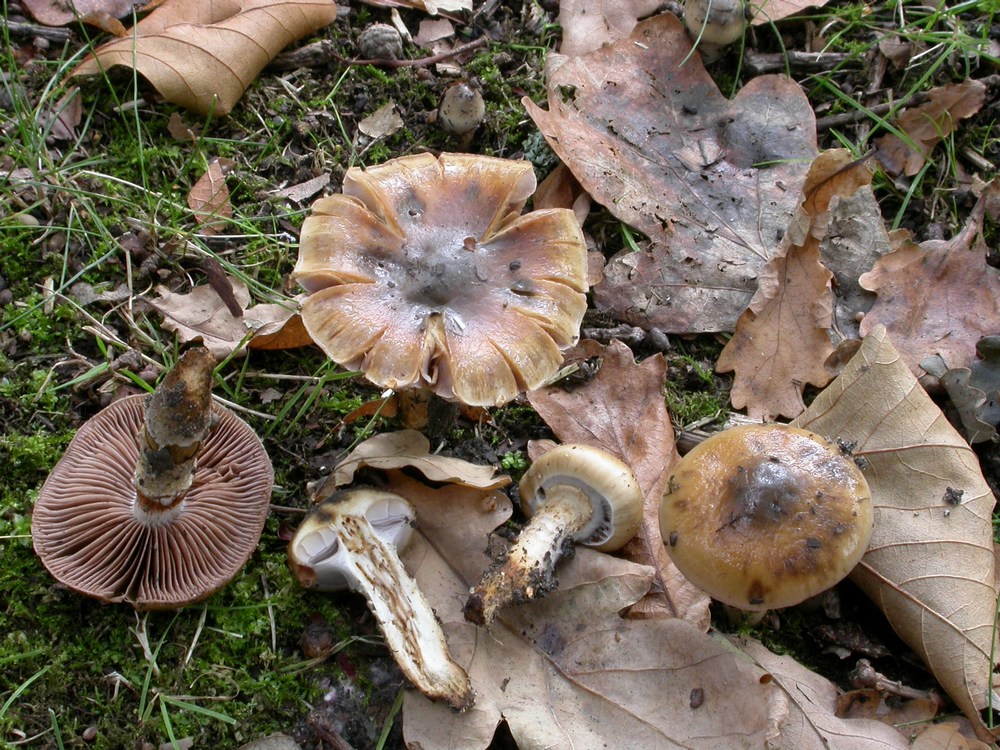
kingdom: Fungi
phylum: Basidiomycota
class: Agaricomycetes
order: Agaricales
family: Cortinariaceae
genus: Cortinarius
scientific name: Cortinarius trivialis
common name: brunslimet slørhat
